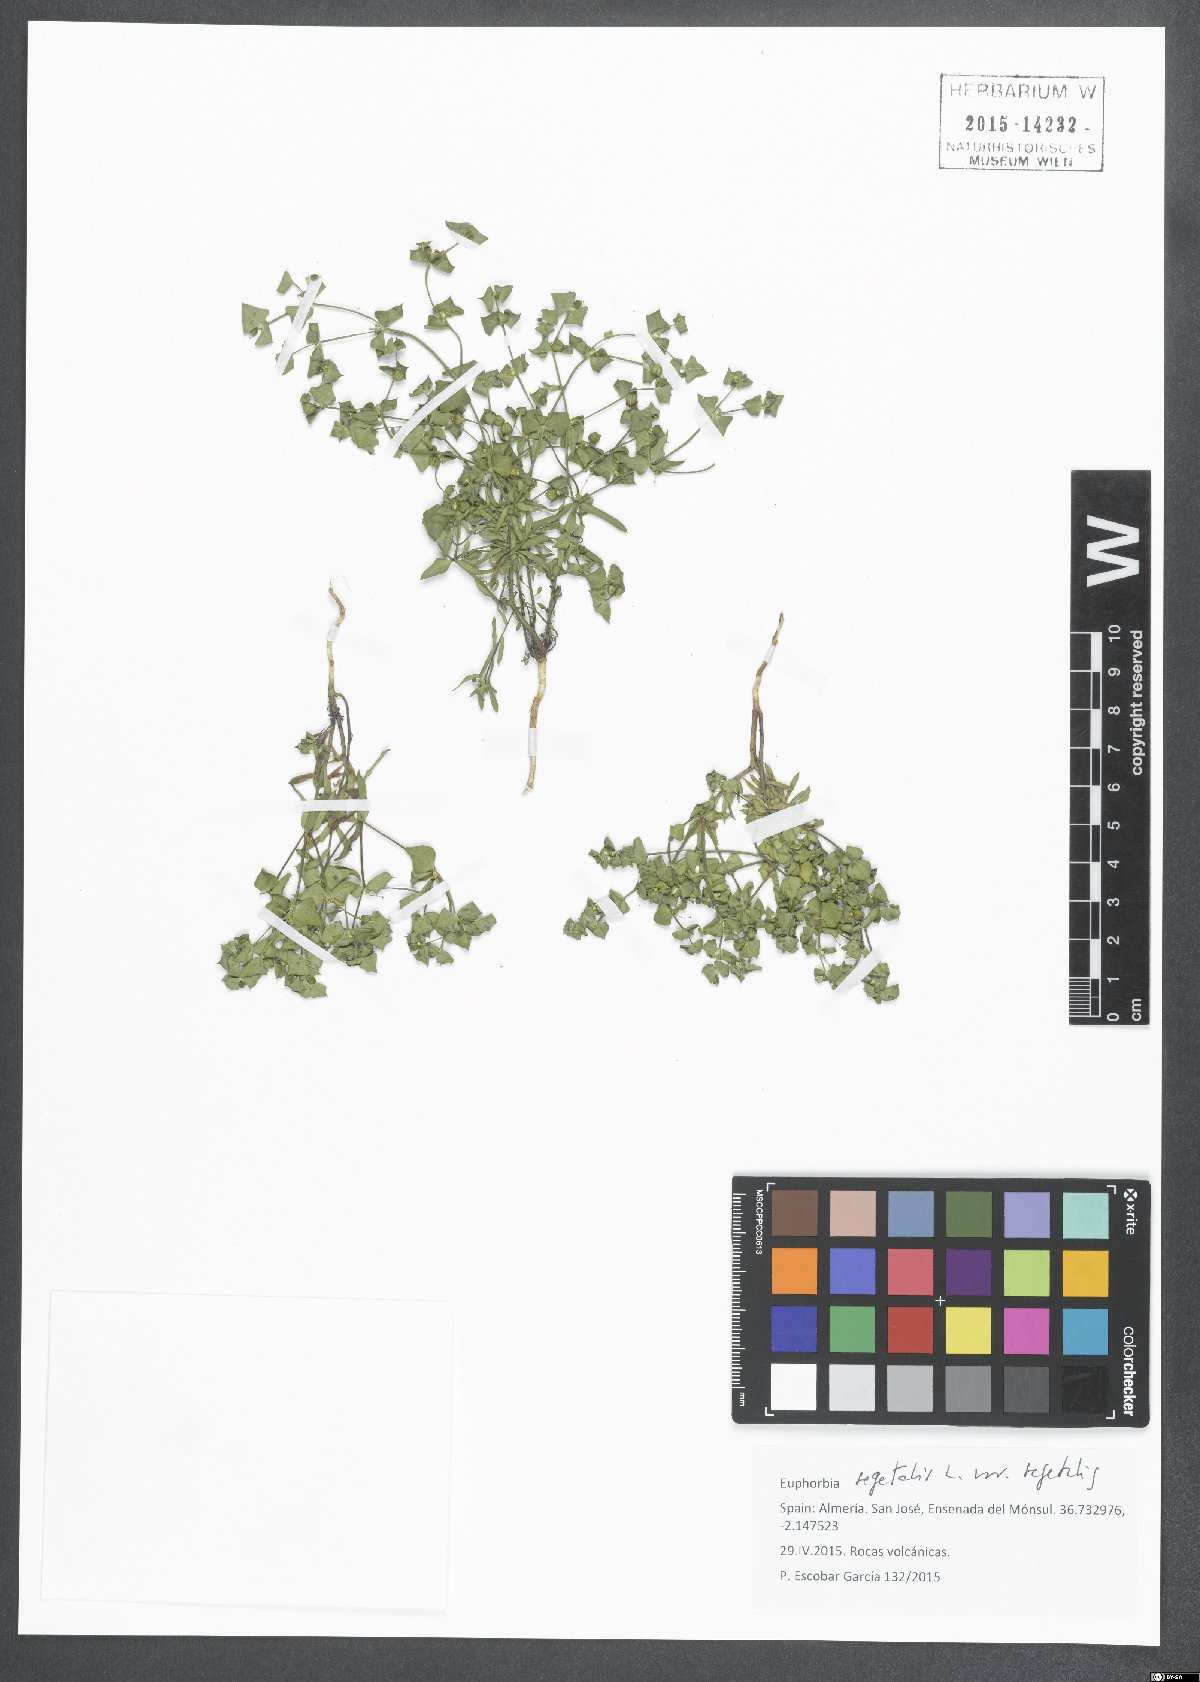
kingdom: Plantae
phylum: Tracheophyta
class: Magnoliopsida
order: Malpighiales
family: Euphorbiaceae
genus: Euphorbia
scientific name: Euphorbia segetalis
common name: Corn spurge
